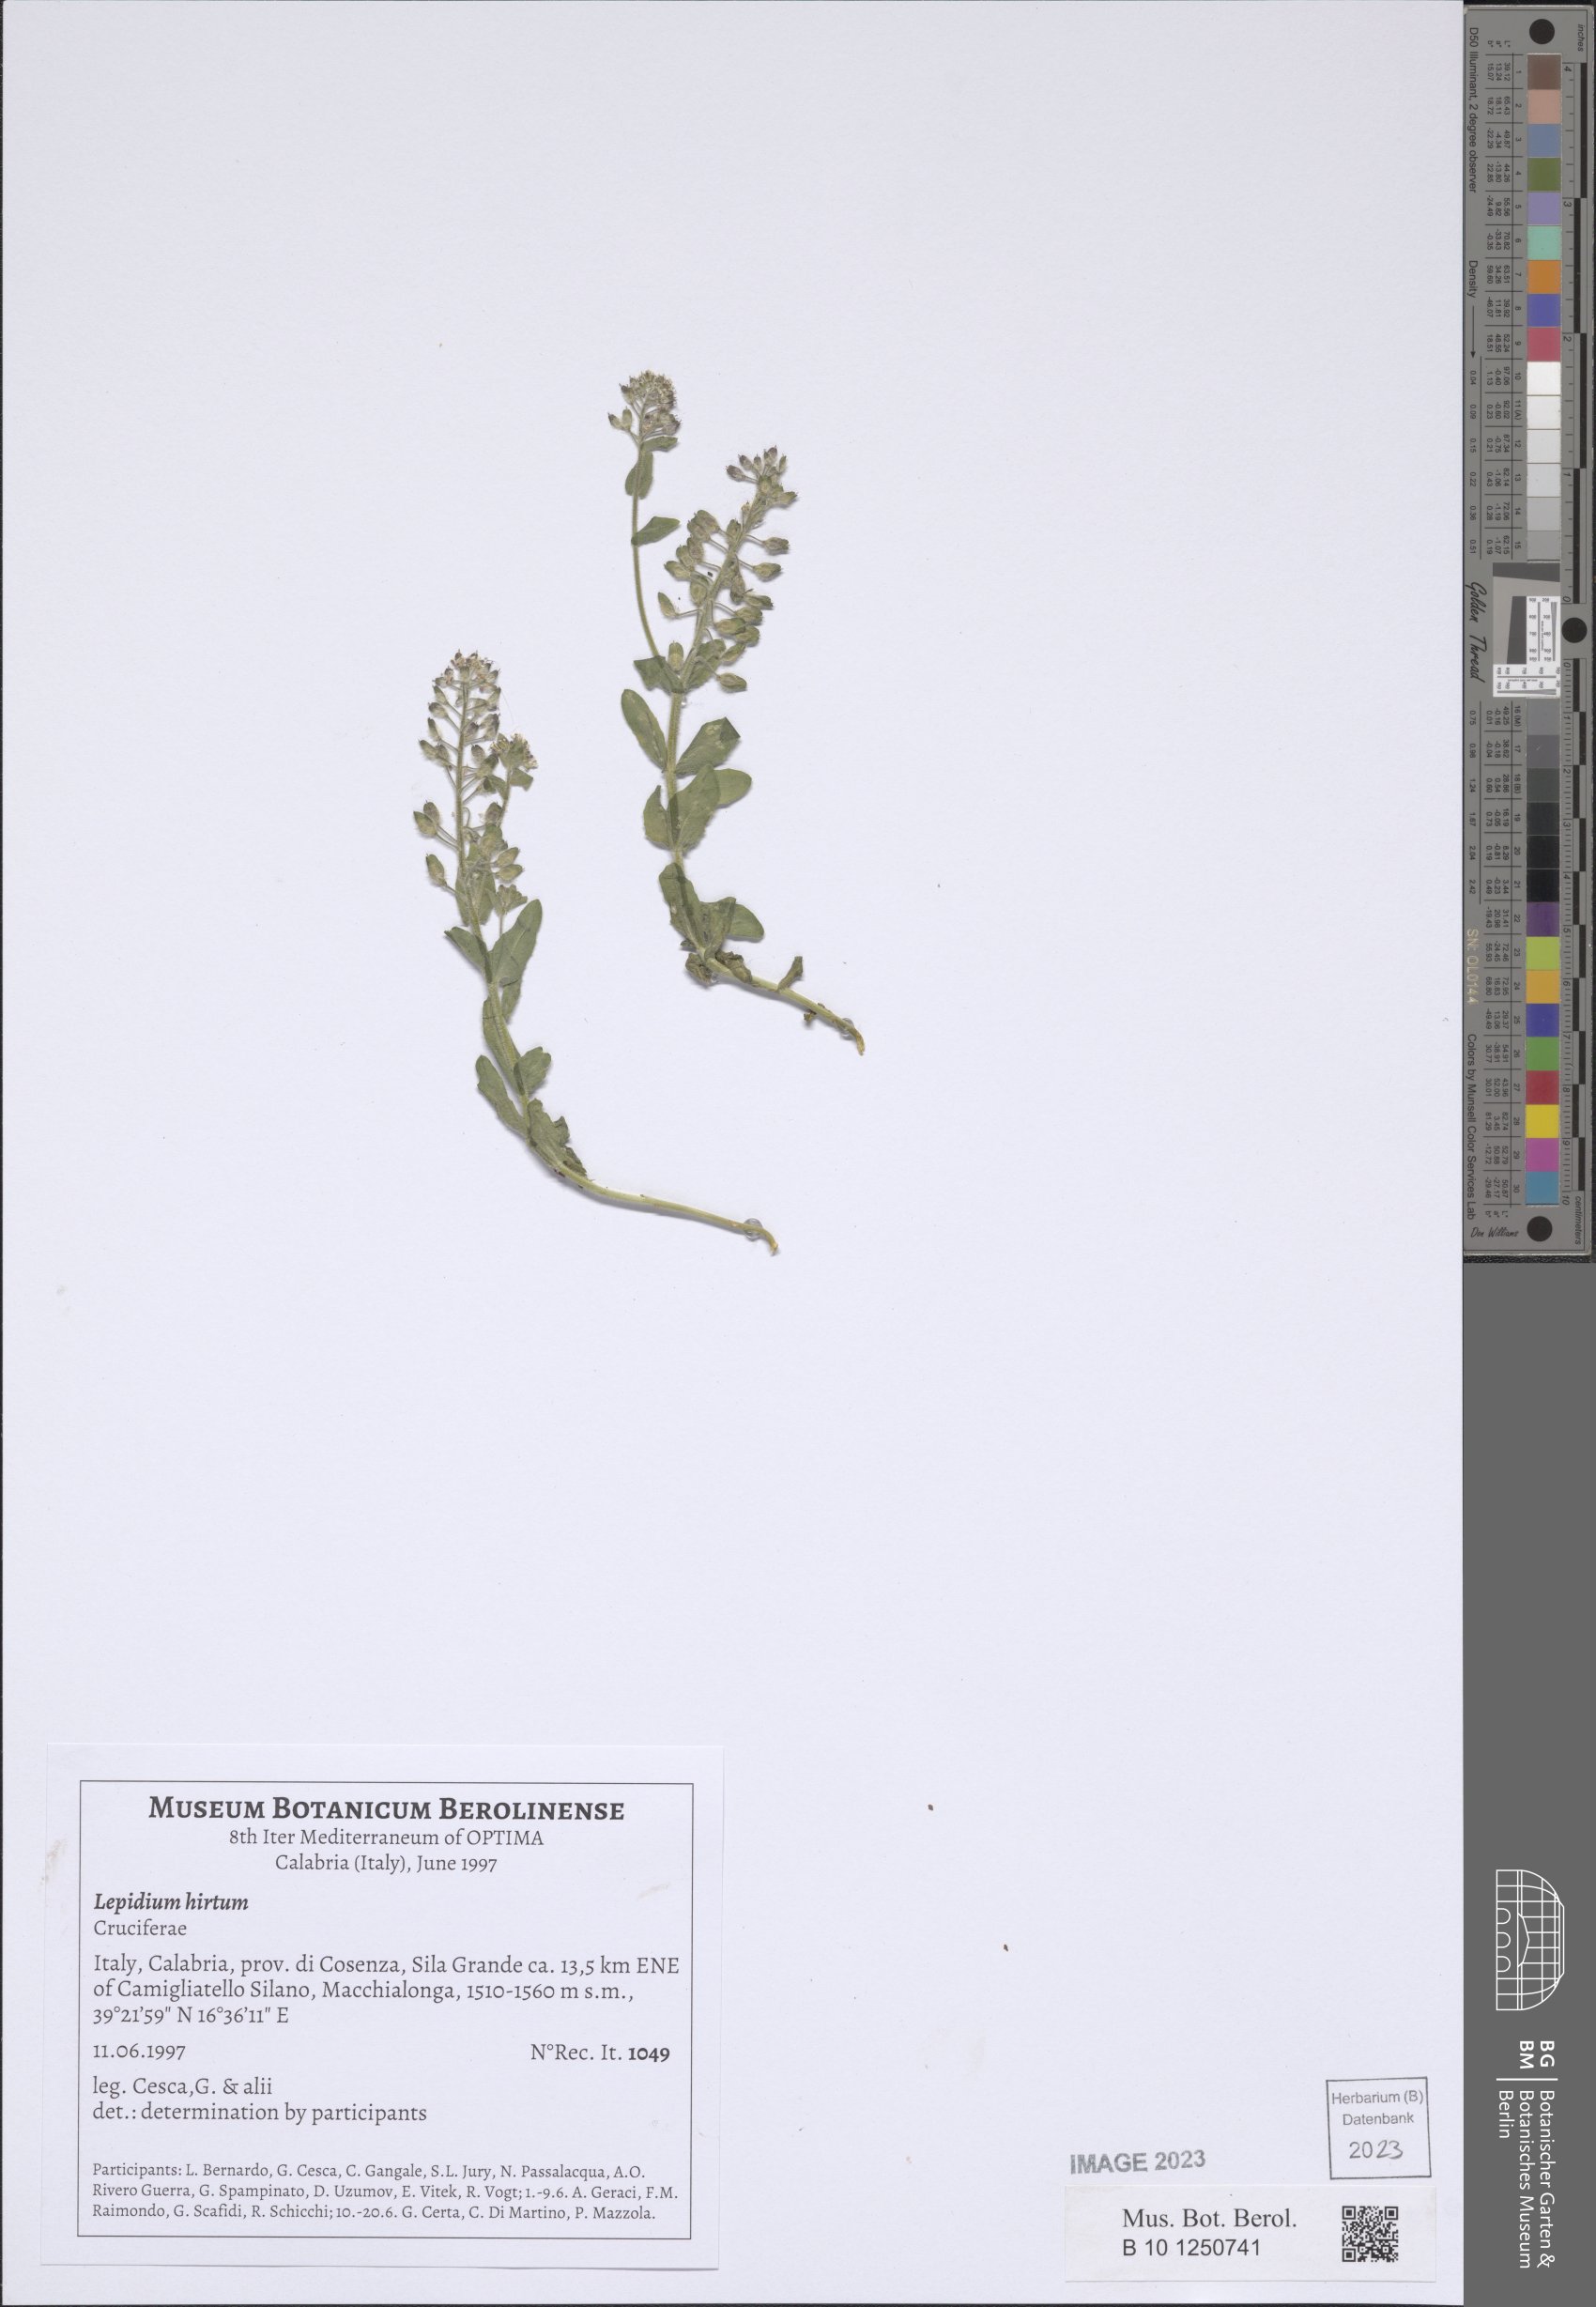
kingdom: Plantae
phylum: Tracheophyta
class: Magnoliopsida
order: Brassicales
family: Brassicaceae
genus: Lepidium
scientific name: Lepidium hirtum
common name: Mediterranean pepperweed
